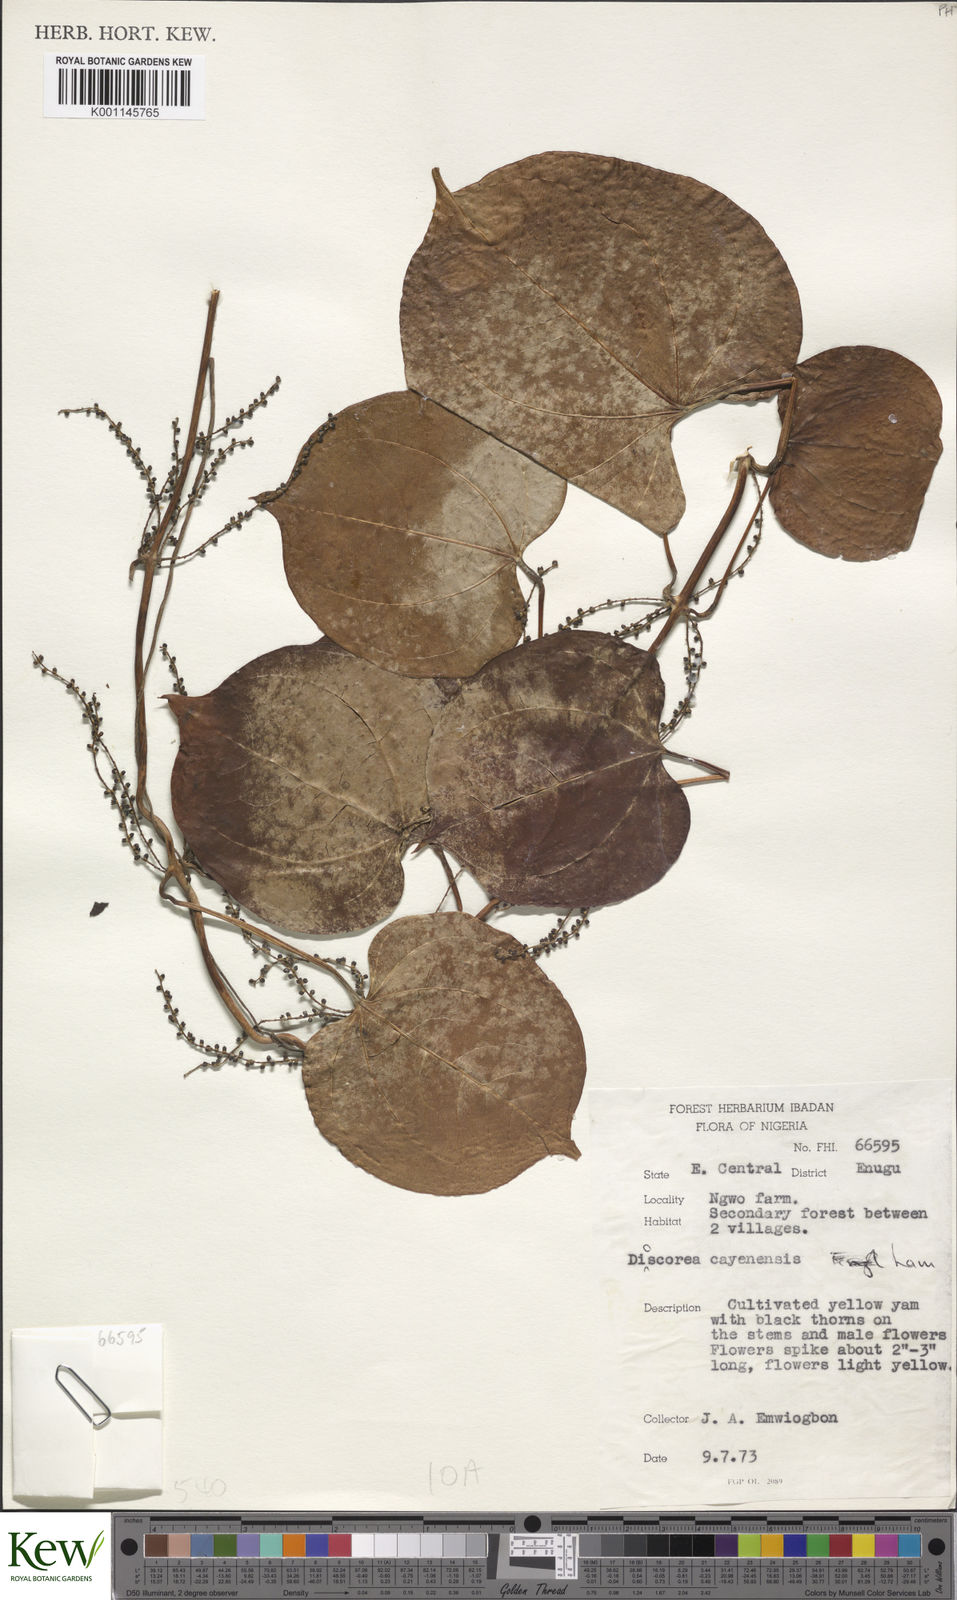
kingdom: Plantae
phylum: Tracheophyta
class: Liliopsida
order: Dioscoreales
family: Dioscoreaceae
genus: Dioscorea
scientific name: Dioscorea cayenensis
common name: Attoto yam
